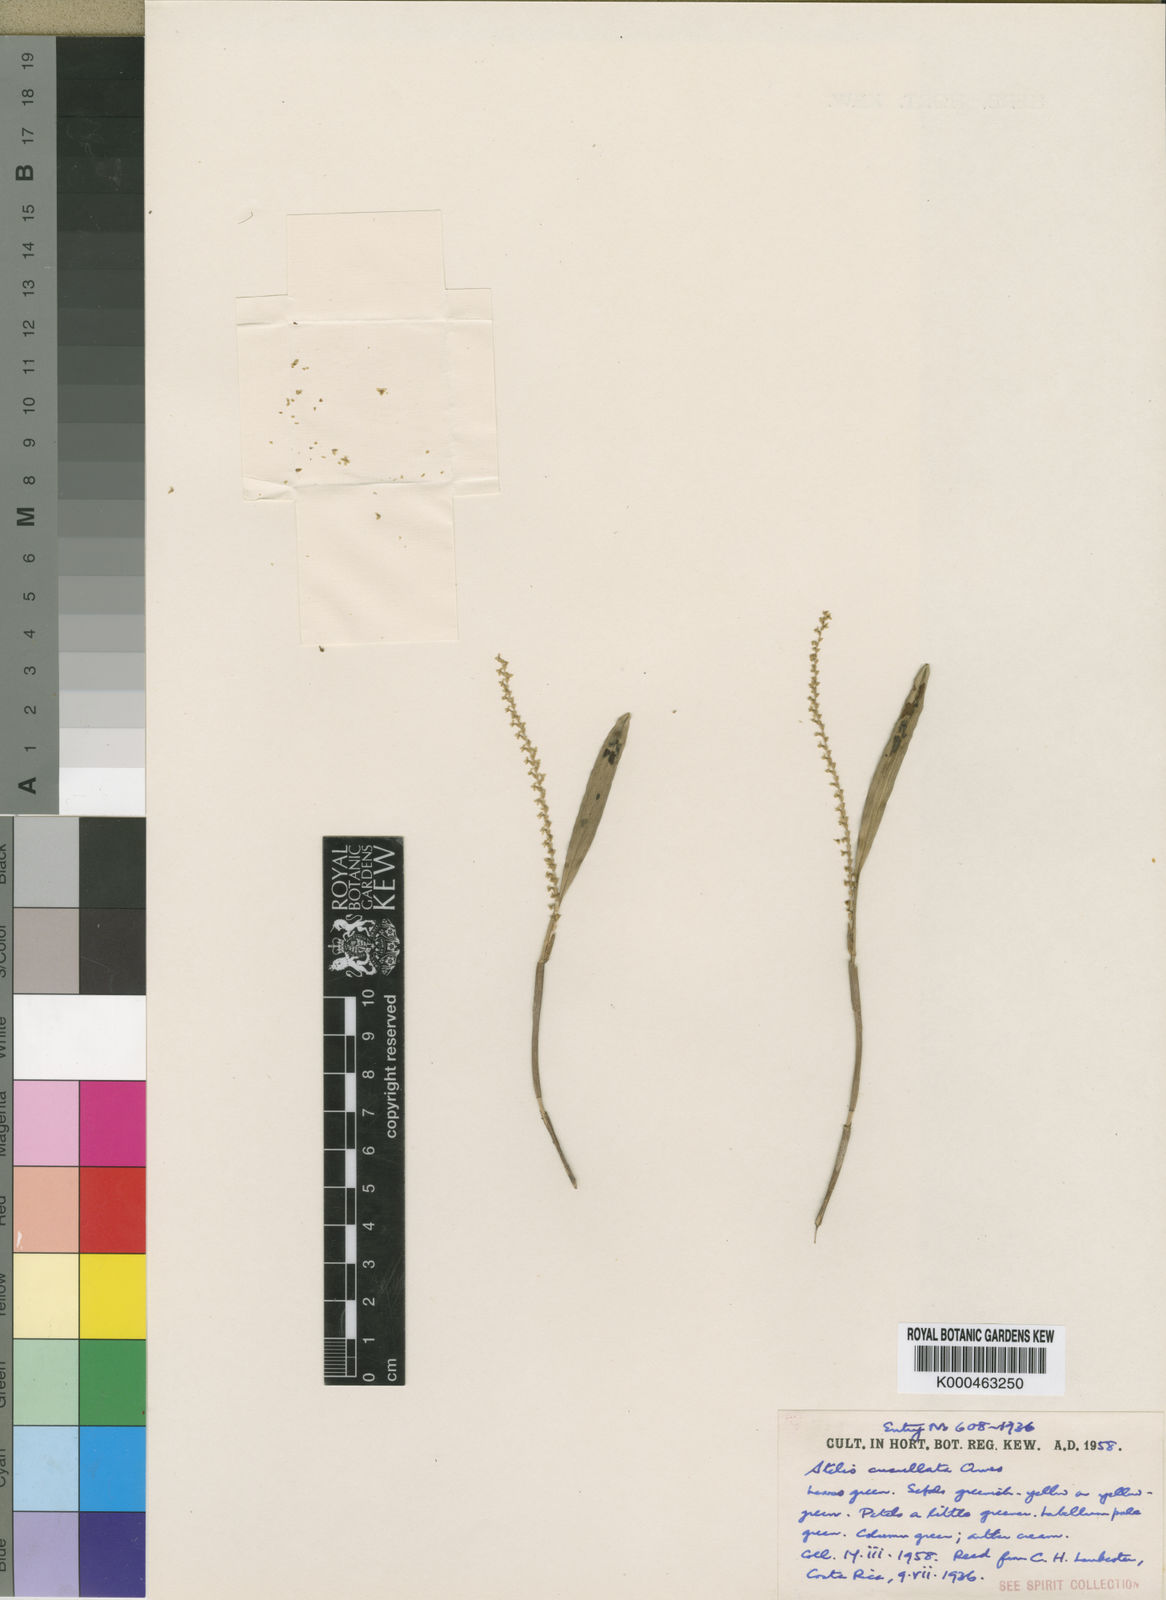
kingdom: Plantae
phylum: Tracheophyta
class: Liliopsida
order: Asparagales
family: Orchidaceae
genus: Stelis
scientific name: Stelis cucullata
